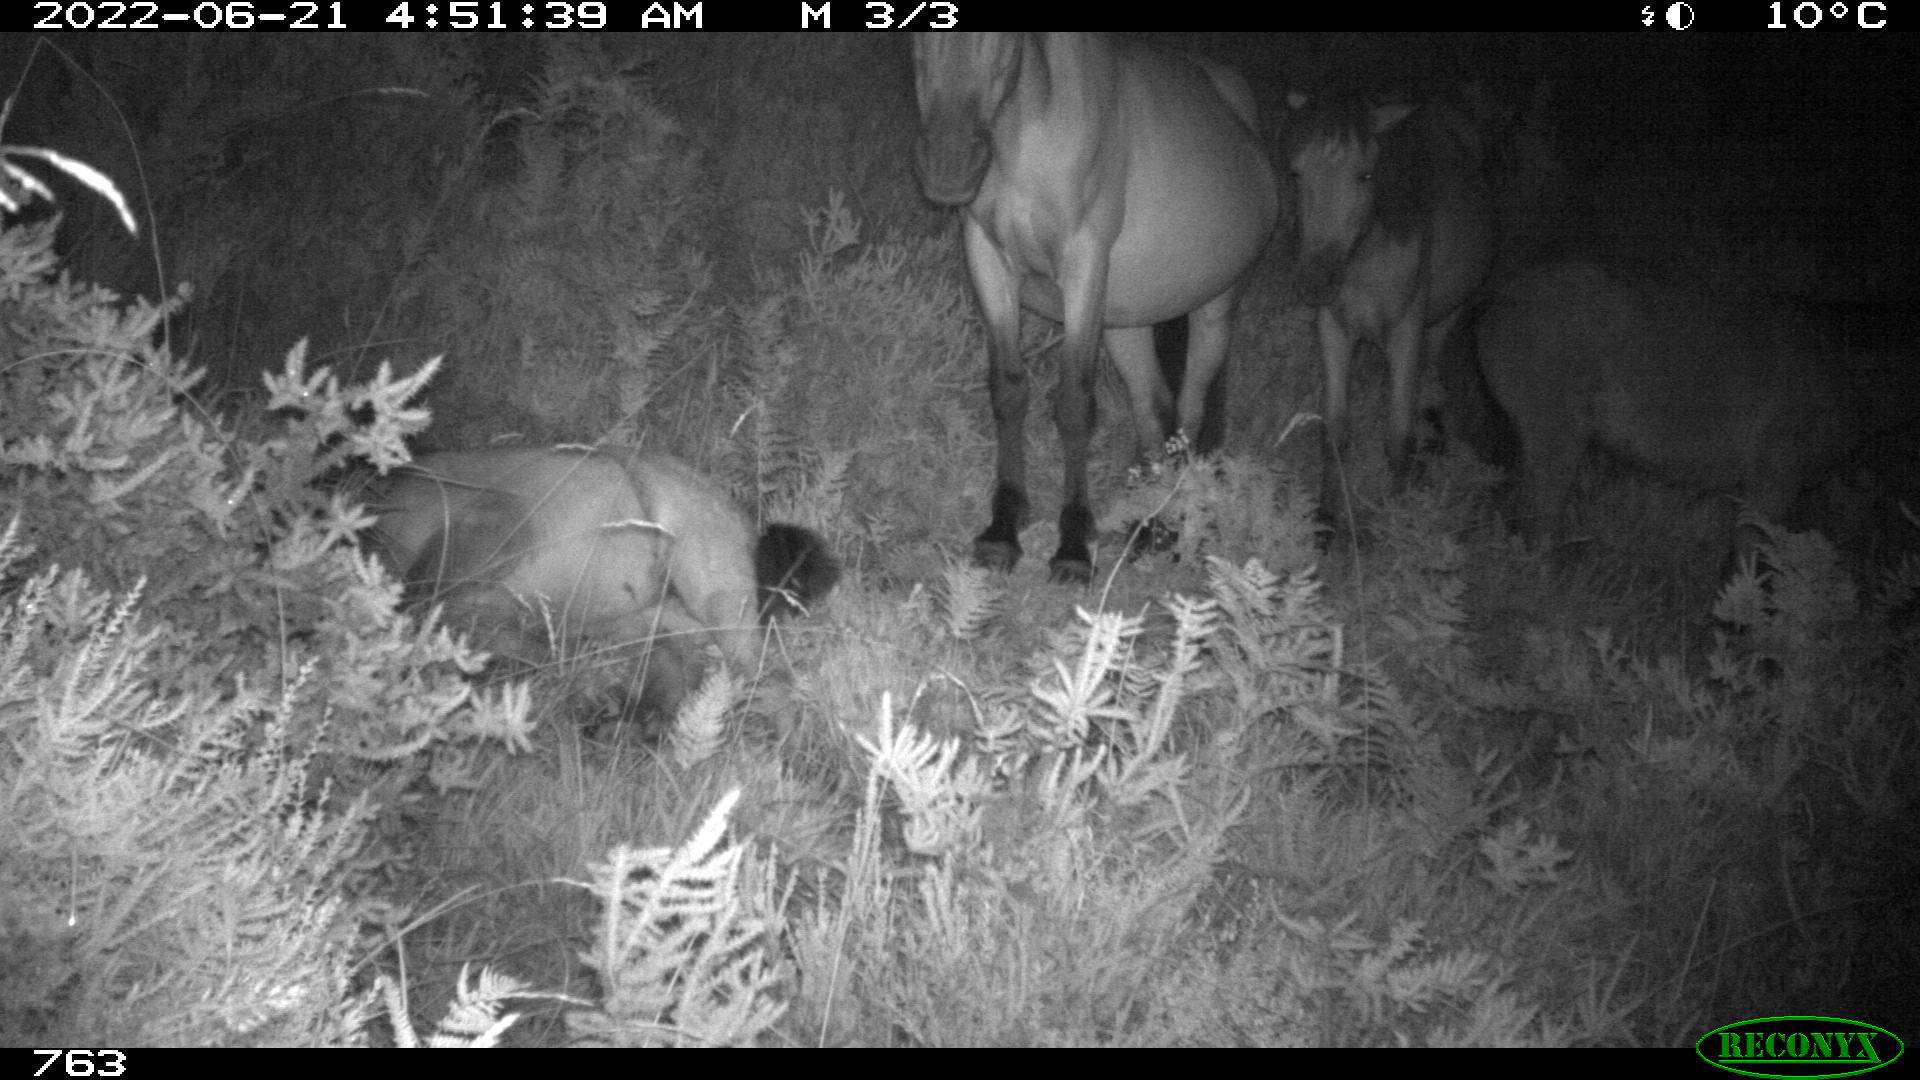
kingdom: Animalia
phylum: Chordata
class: Mammalia
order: Perissodactyla
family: Equidae
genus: Equus
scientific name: Equus caballus
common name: Horse
